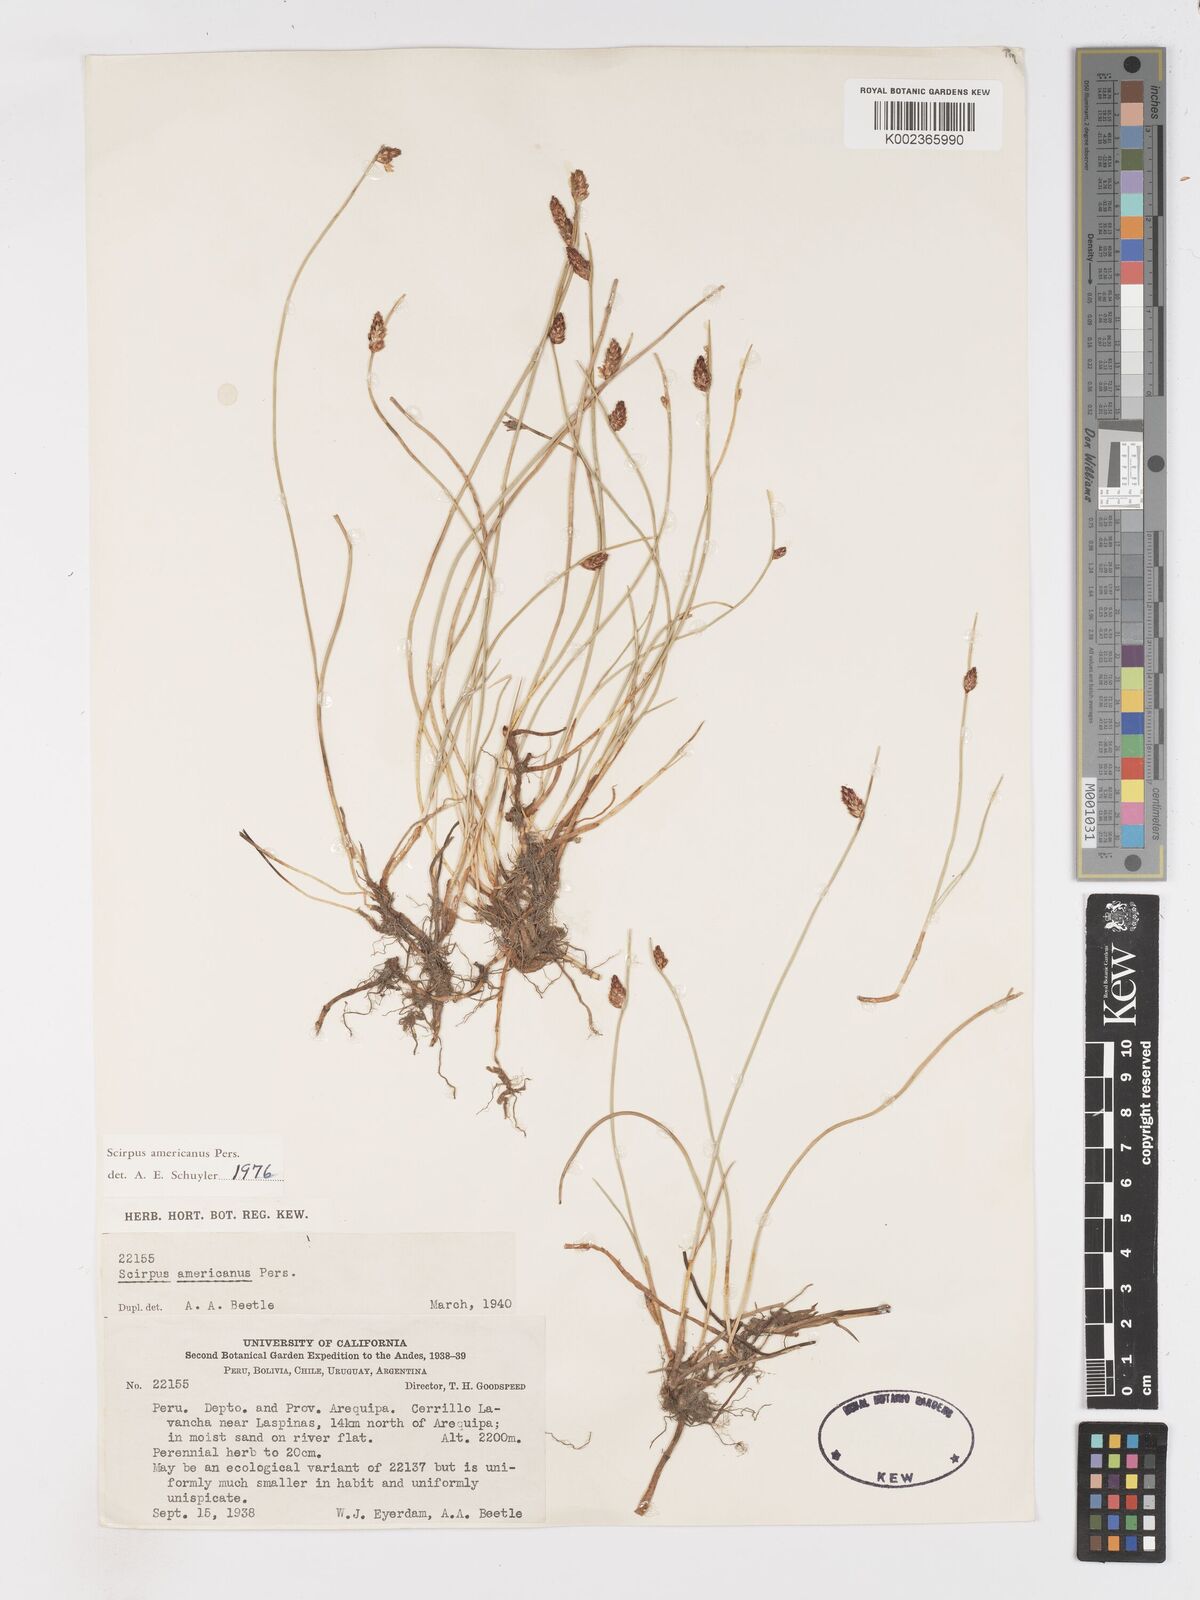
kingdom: Plantae
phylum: Tracheophyta
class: Liliopsida
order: Poales
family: Cyperaceae
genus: Schoenoplectus
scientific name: Schoenoplectus americanus
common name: American three-square bulrush
